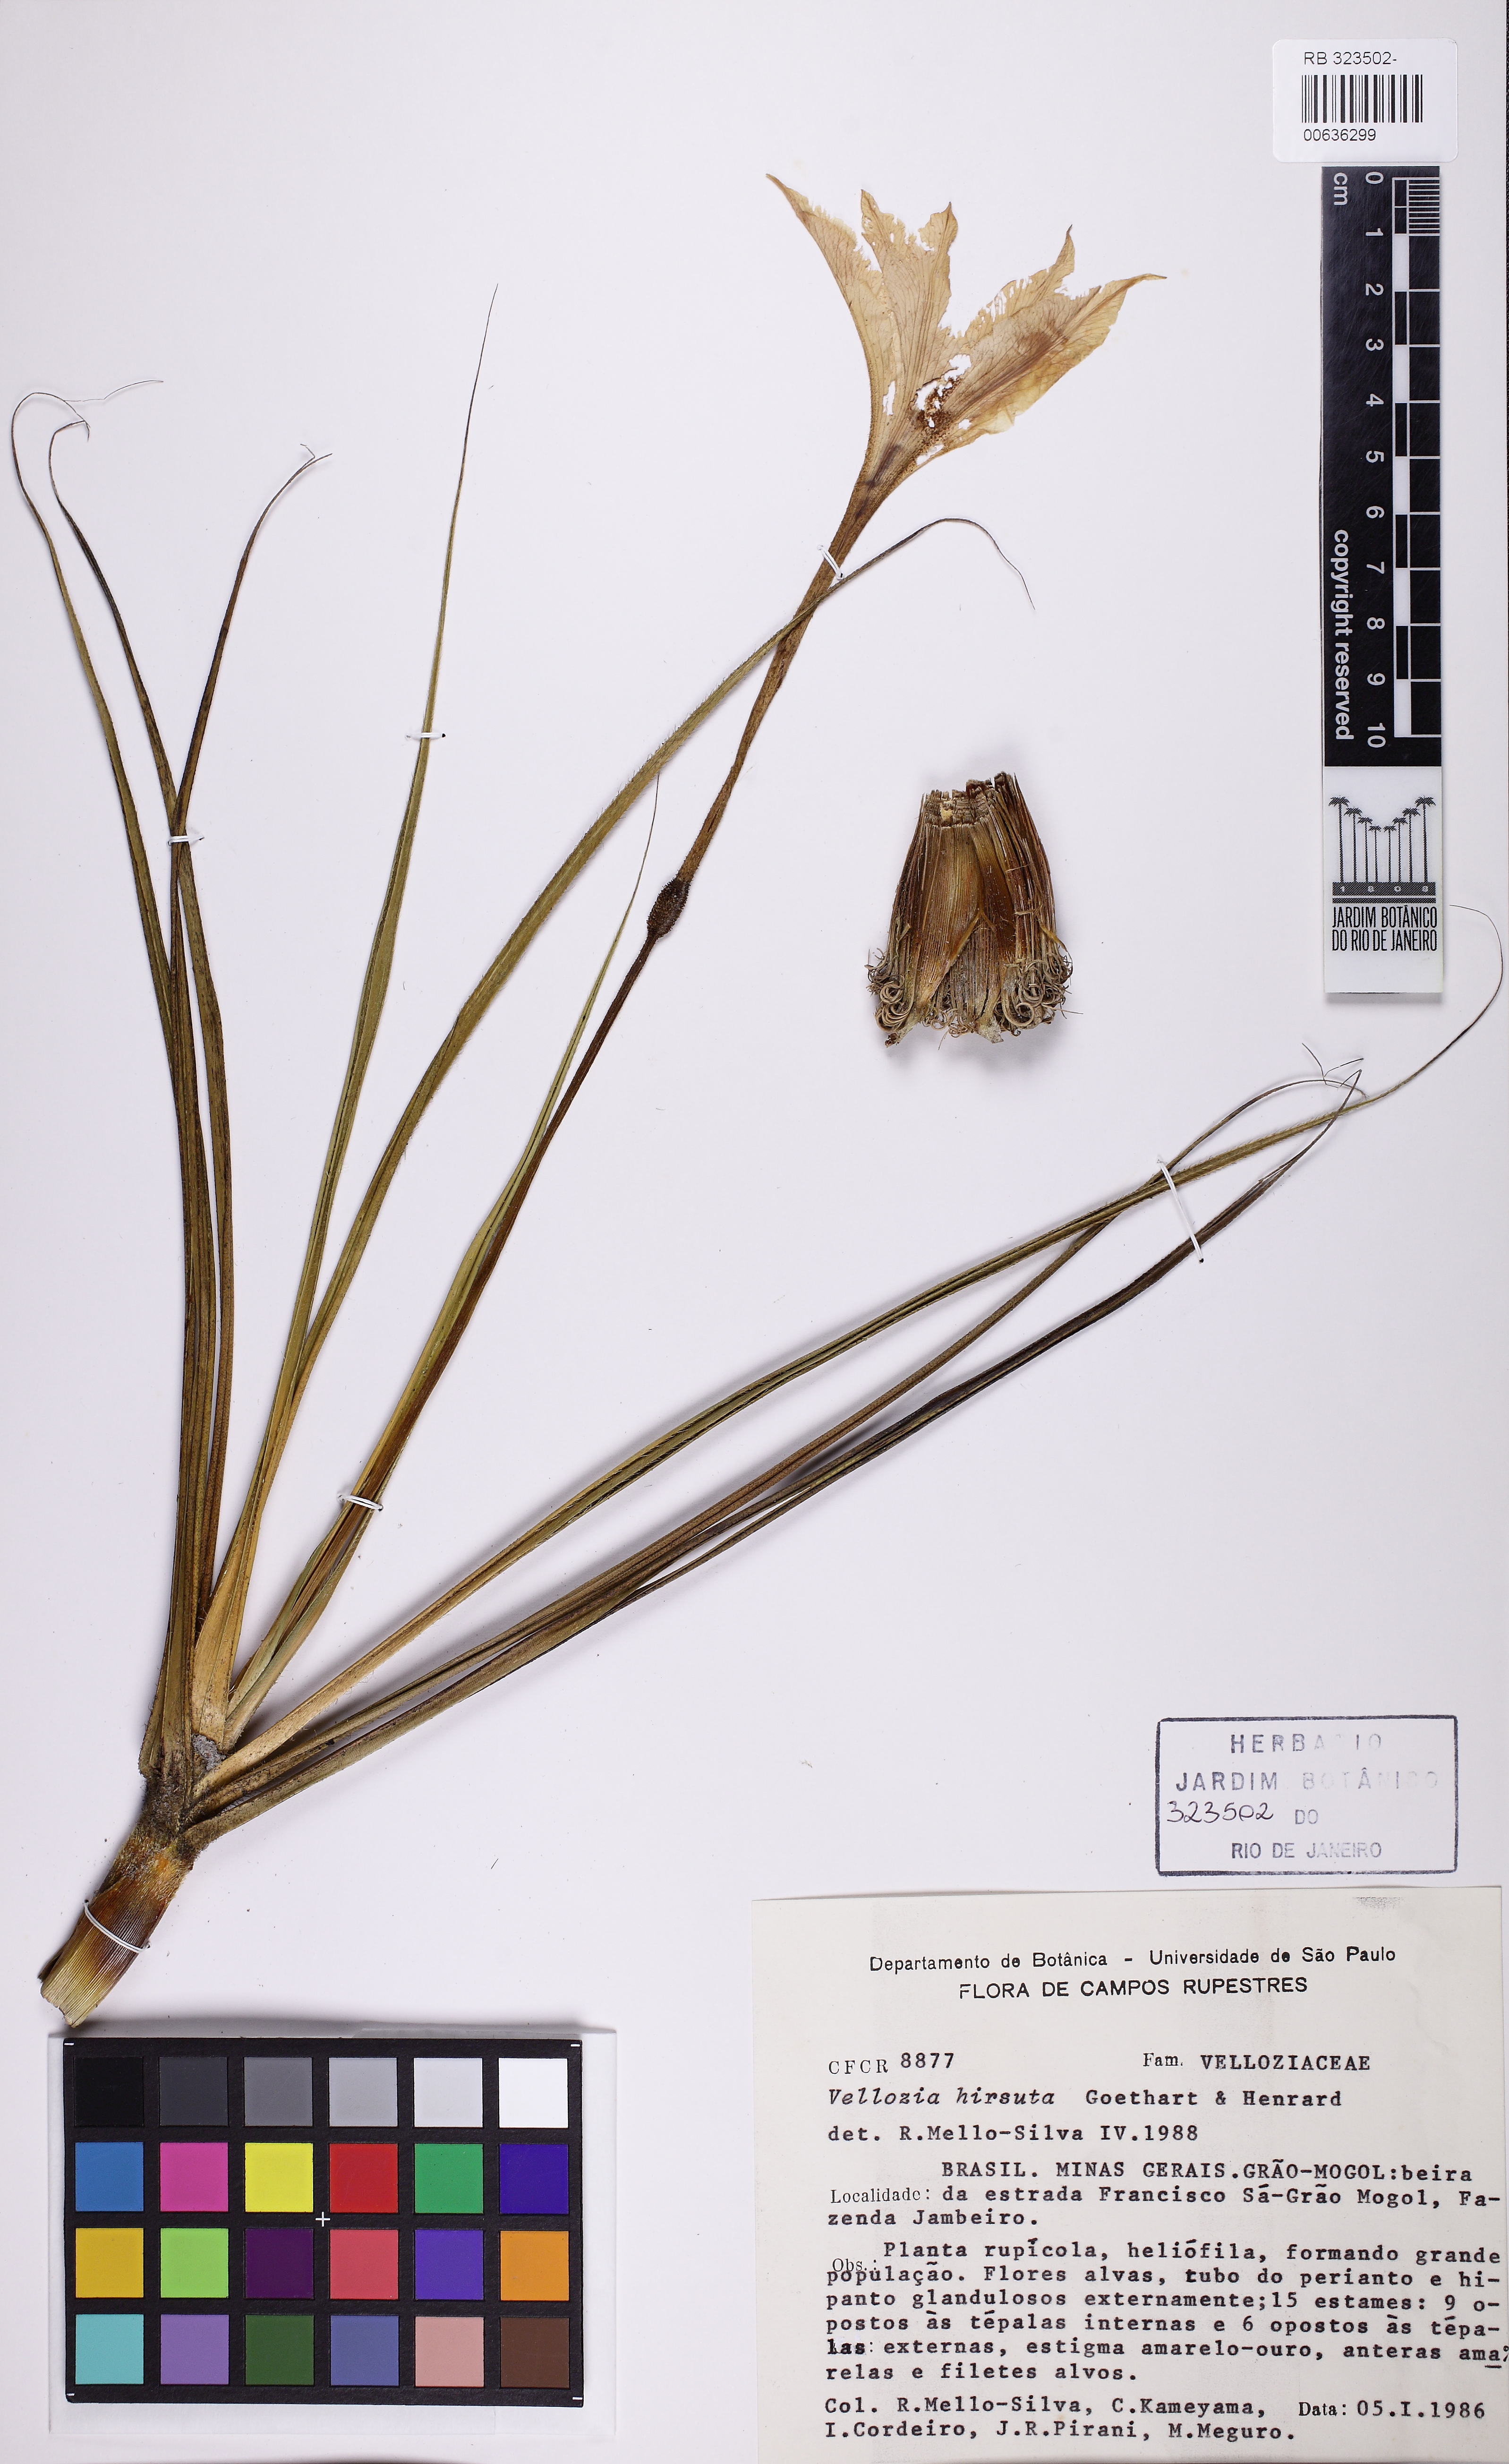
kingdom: Plantae
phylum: Tracheophyta
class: Liliopsida
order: Pandanales
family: Velloziaceae
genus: Vellozia
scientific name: Vellozia hirsuta
